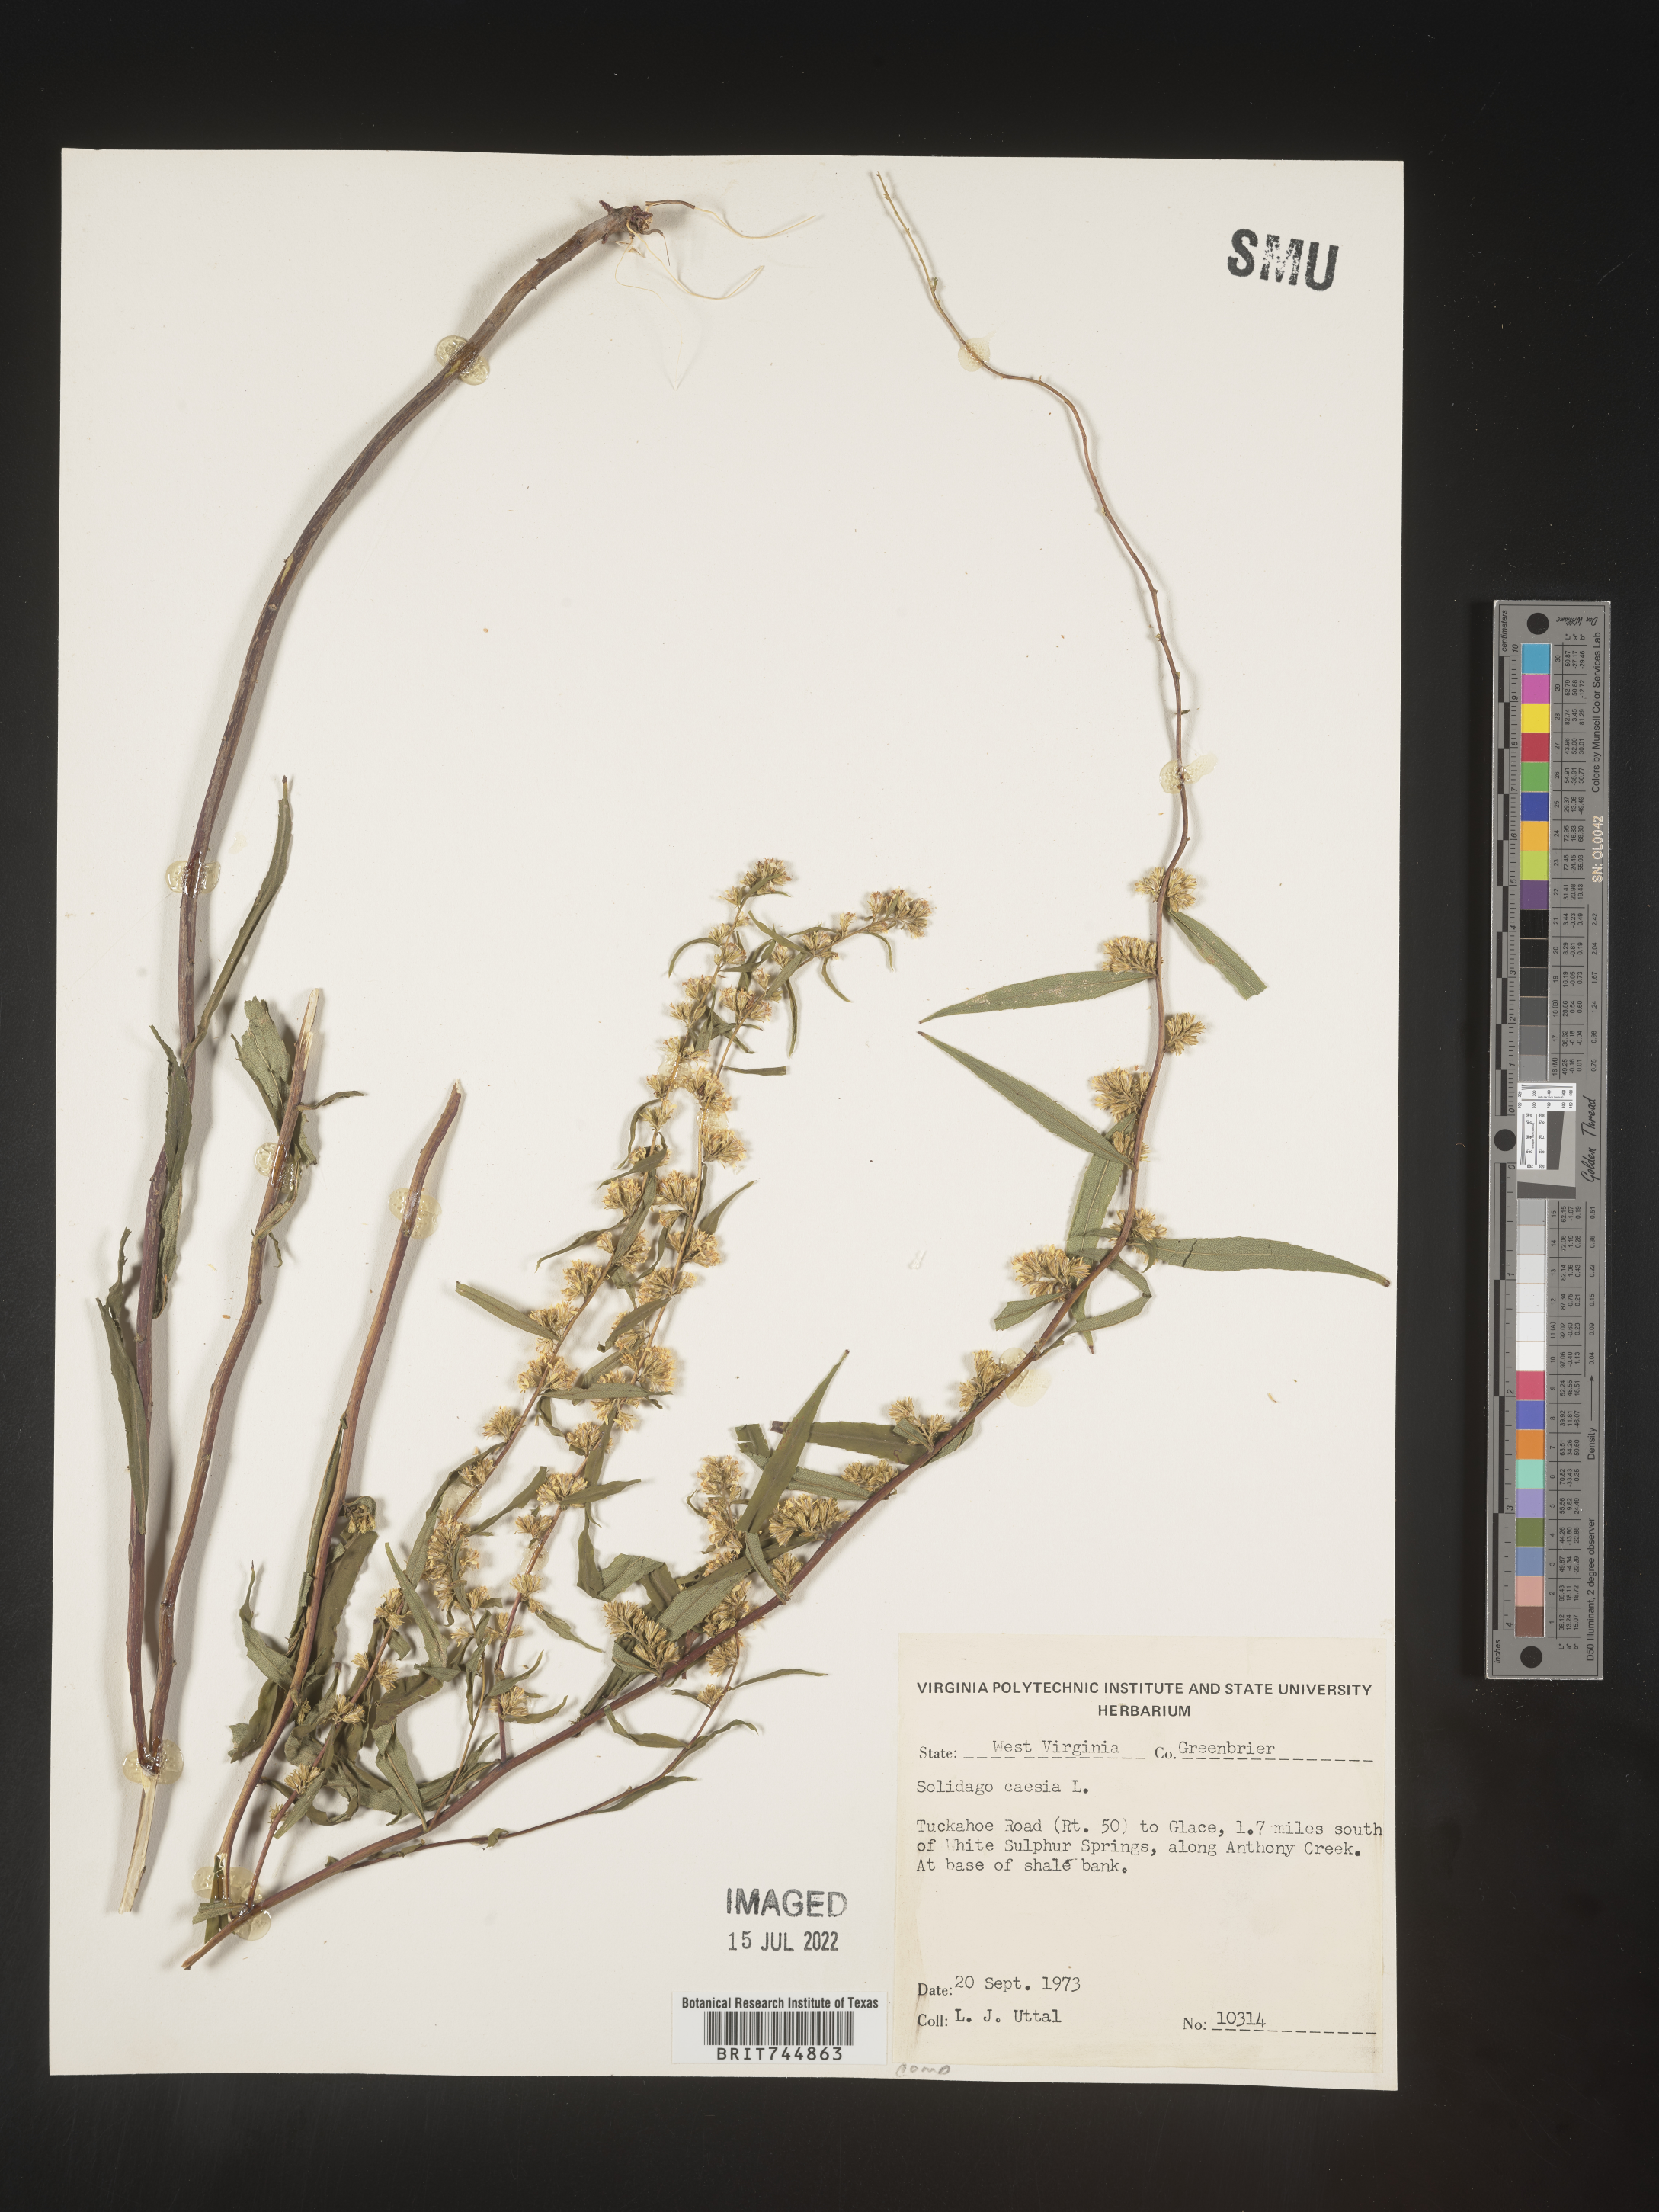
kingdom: Plantae
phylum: Tracheophyta
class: Magnoliopsida
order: Asterales
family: Asteraceae
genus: Solidago
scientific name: Solidago caesia
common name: Woodland goldenrod
